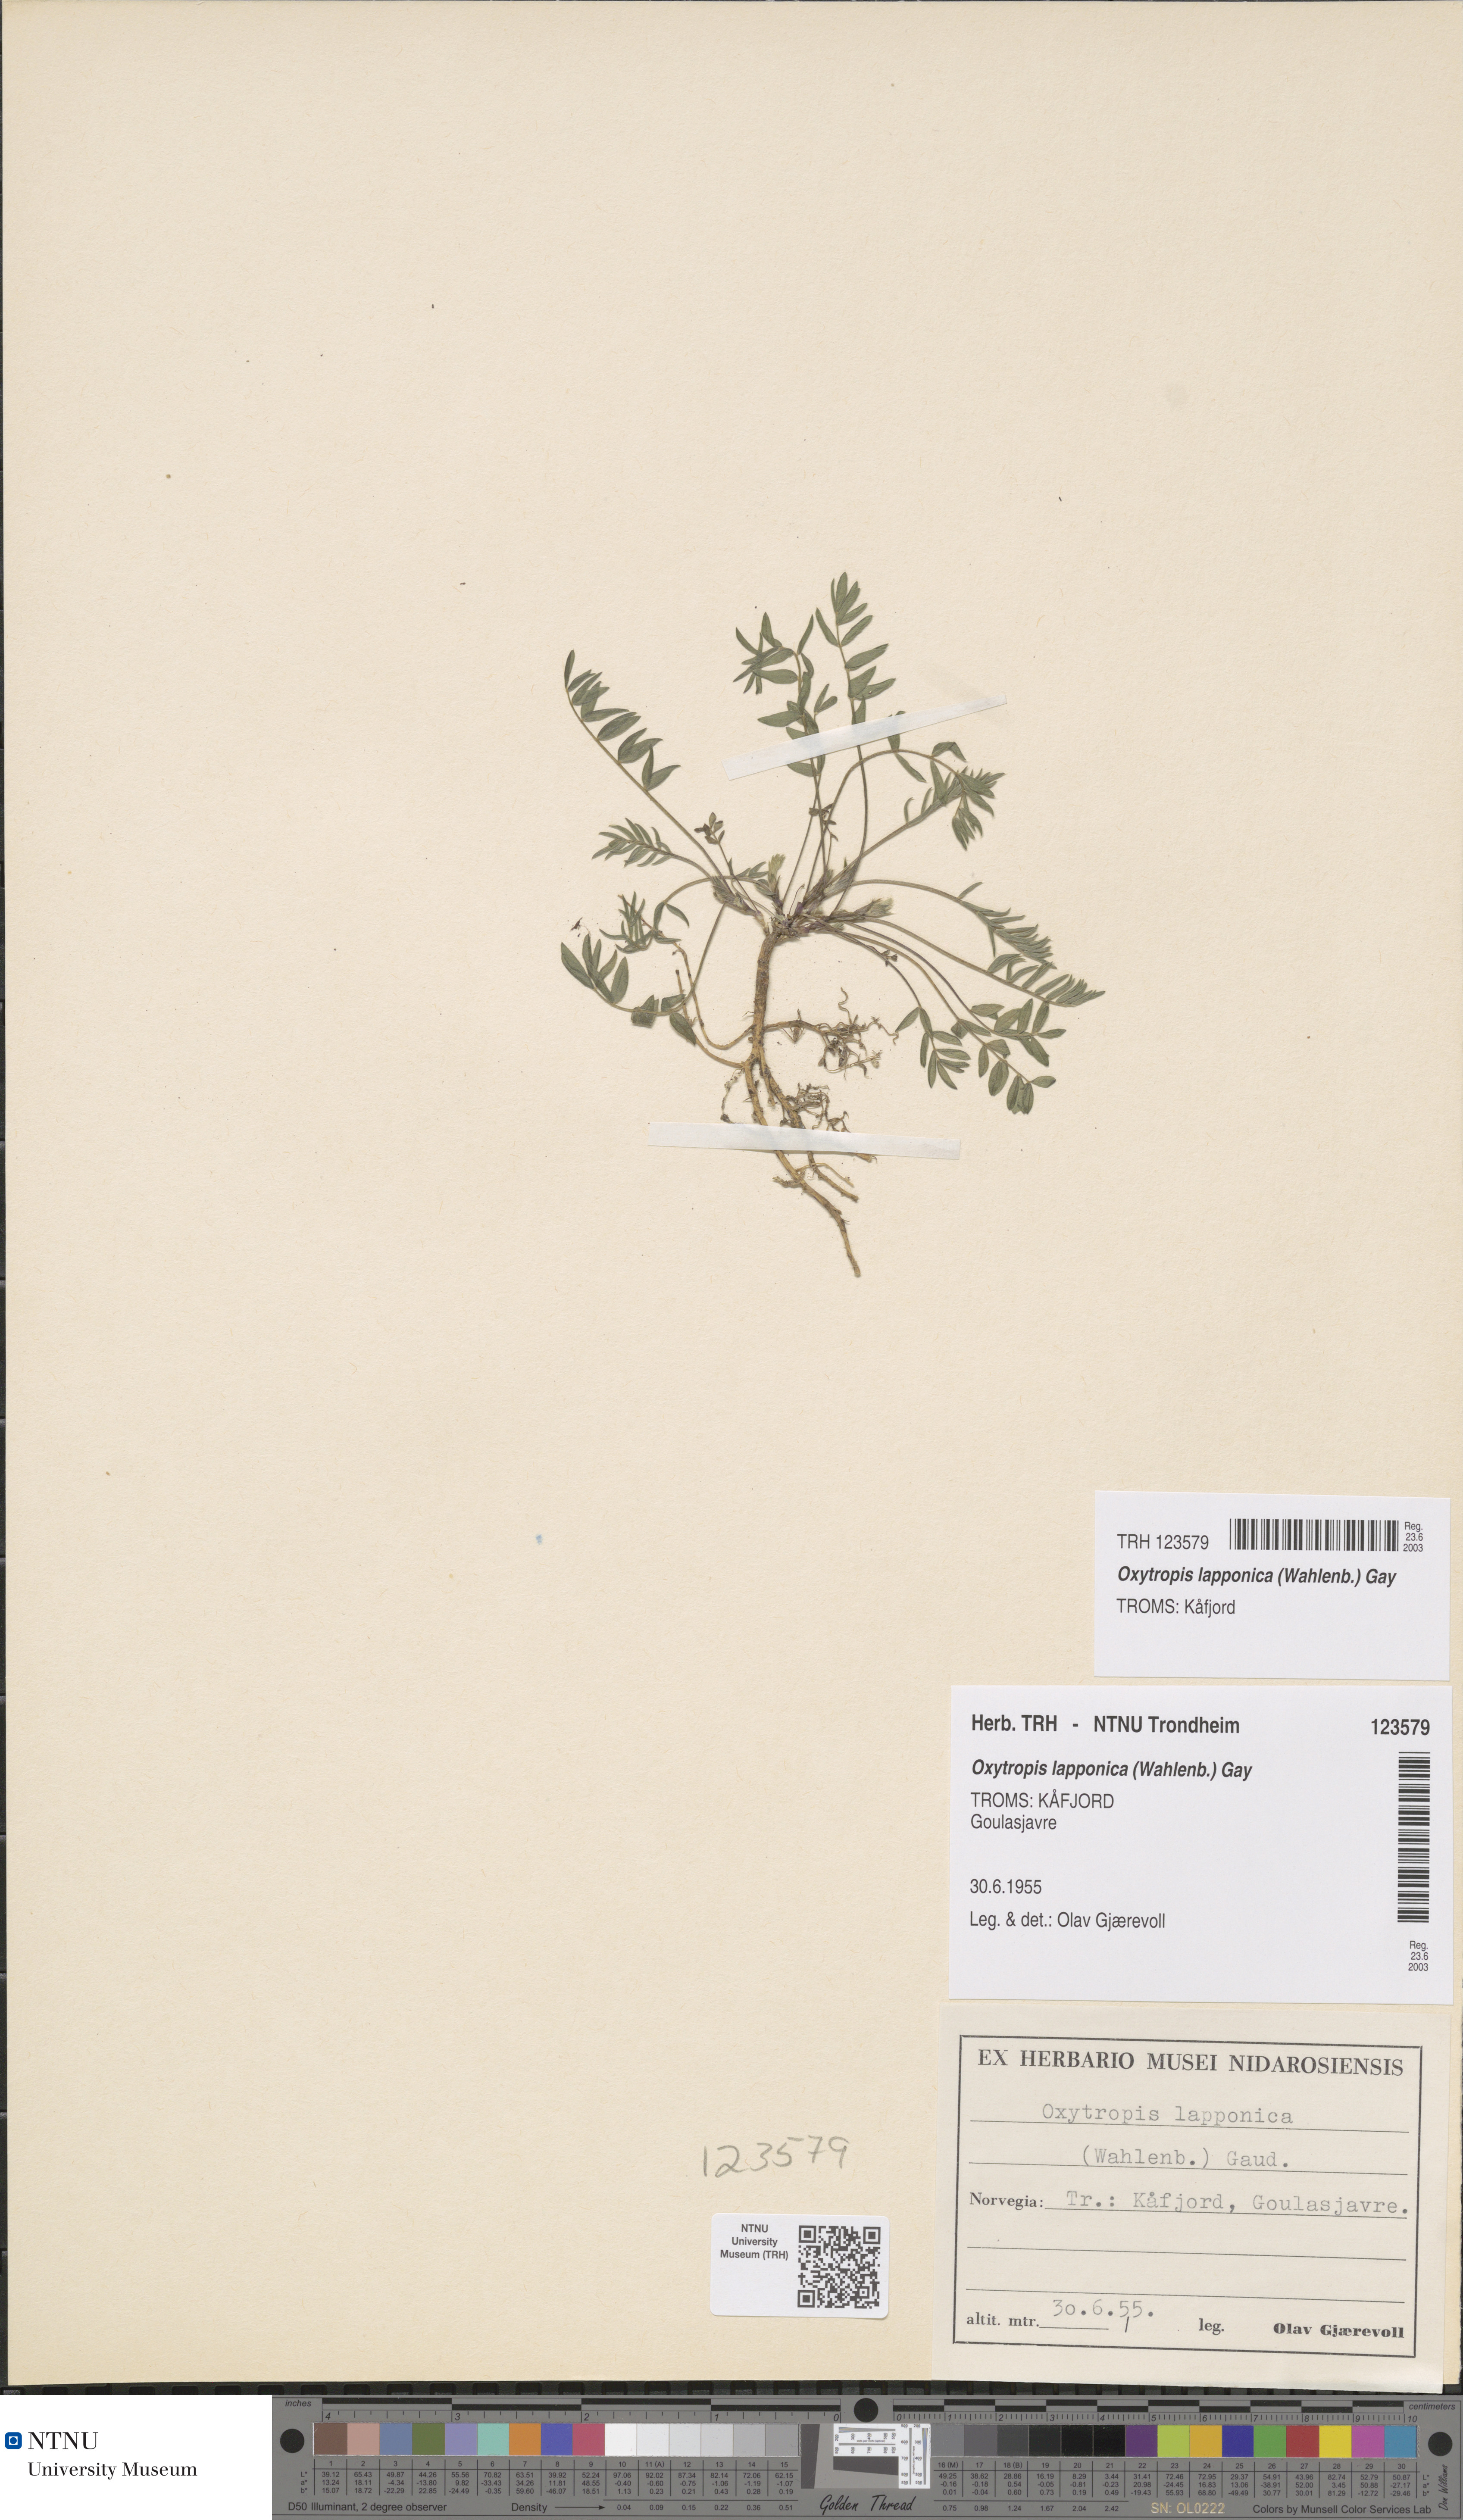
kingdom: Plantae
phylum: Tracheophyta
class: Magnoliopsida
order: Fabales
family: Fabaceae
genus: Oxytropis
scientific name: Oxytropis lapponica
